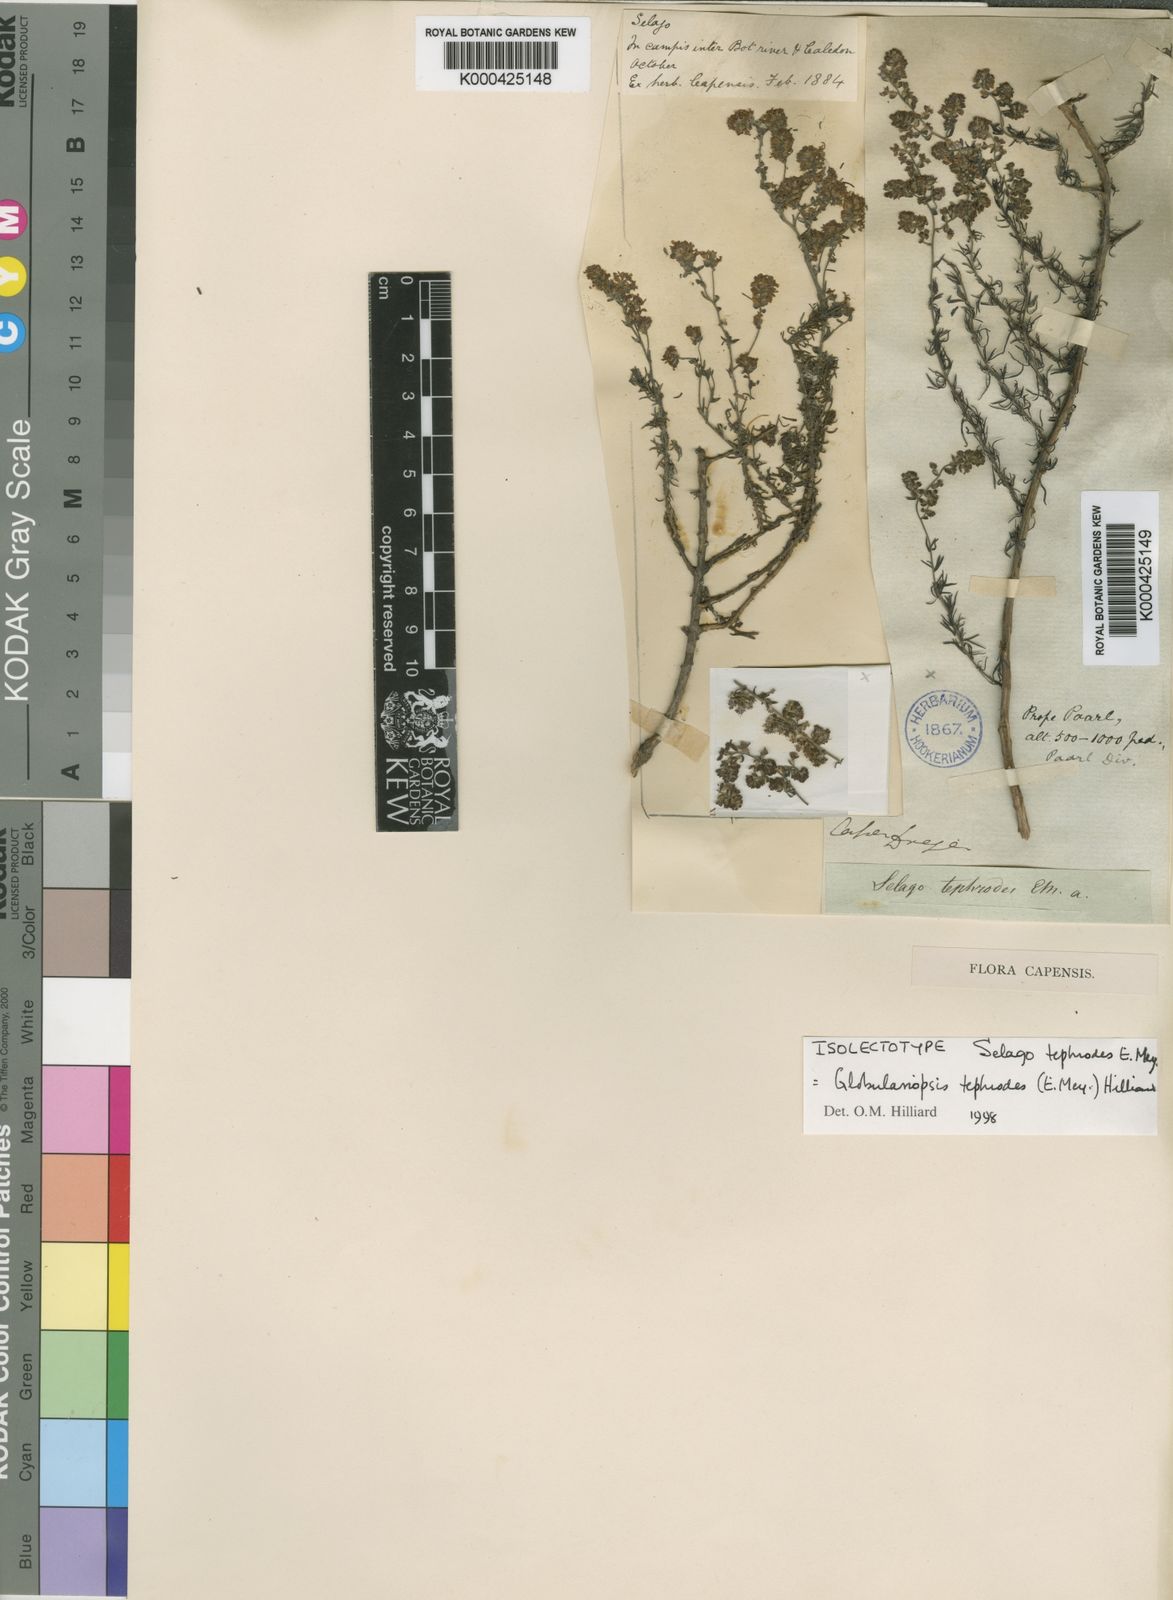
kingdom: Plantae
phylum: Tracheophyta
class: Magnoliopsida
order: Lamiales
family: Scrophulariaceae
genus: Globulariopsis
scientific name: Globulariopsis tephrodes
